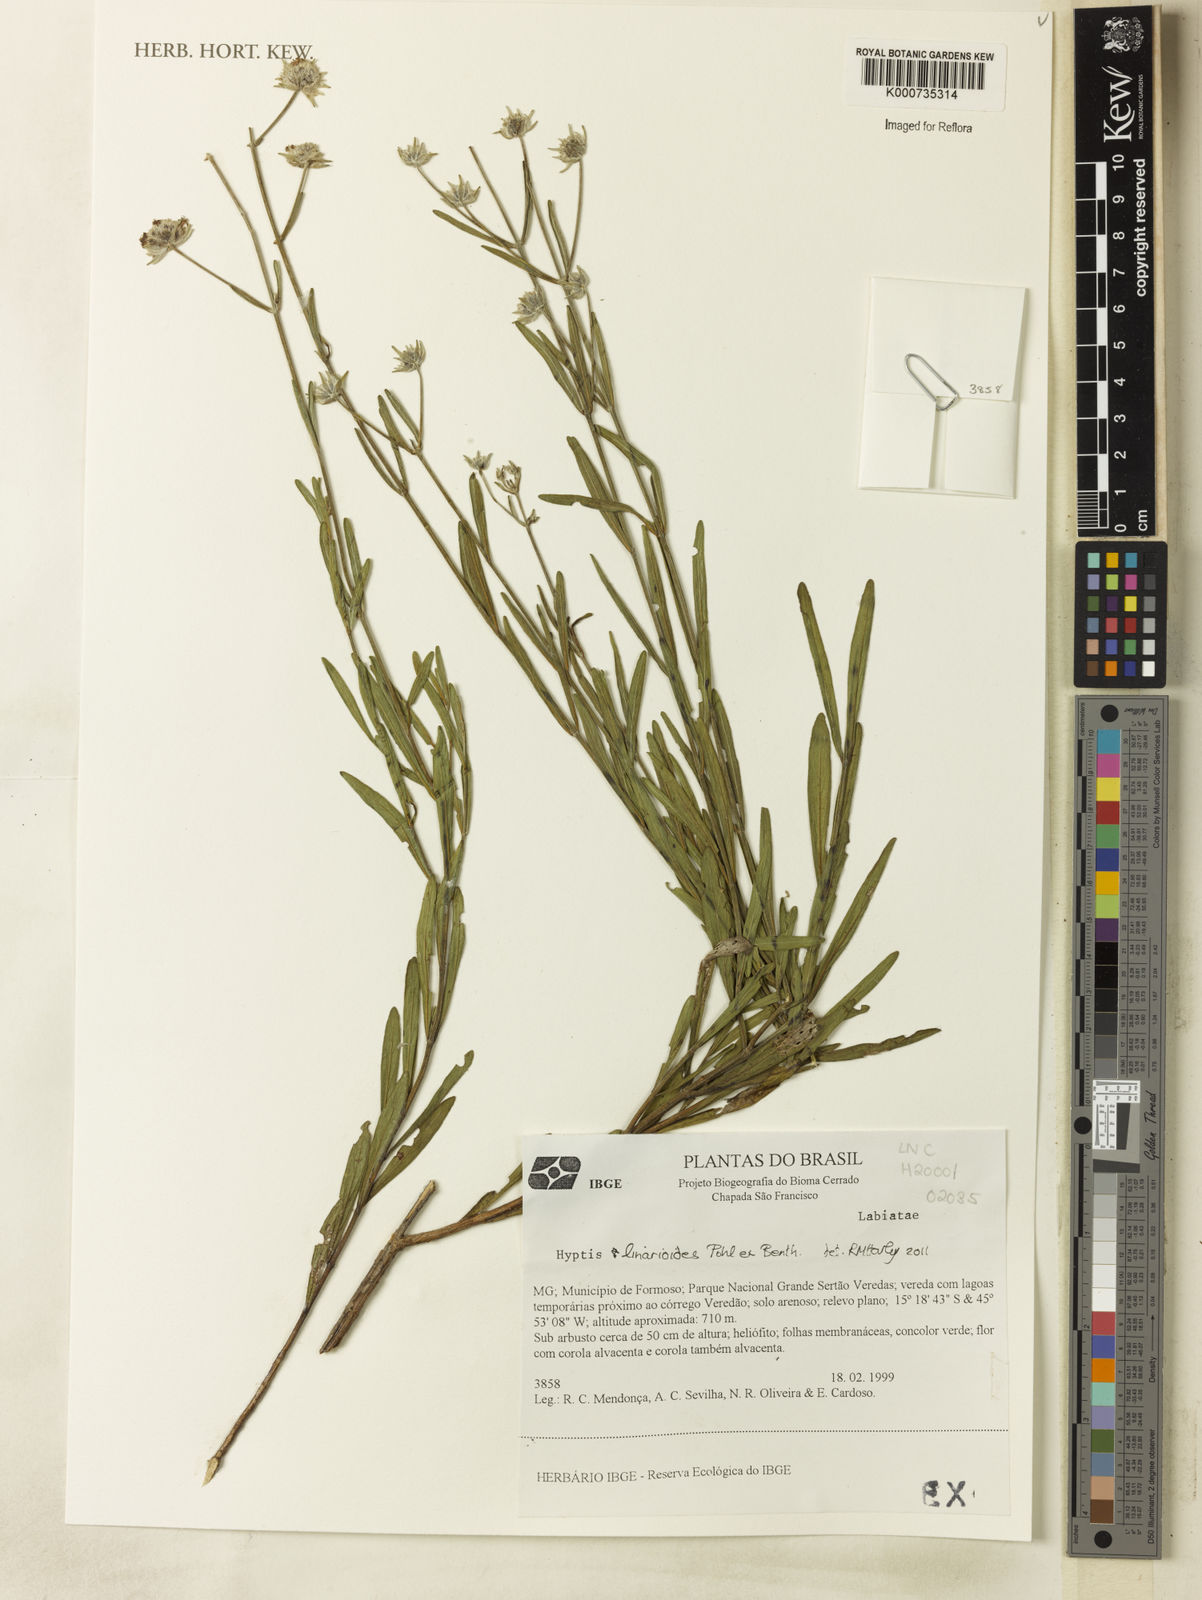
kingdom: Plantae
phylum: Tracheophyta
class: Magnoliopsida
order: Lamiales
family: Lamiaceae
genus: Hyptis
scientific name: Hyptis linarioides
